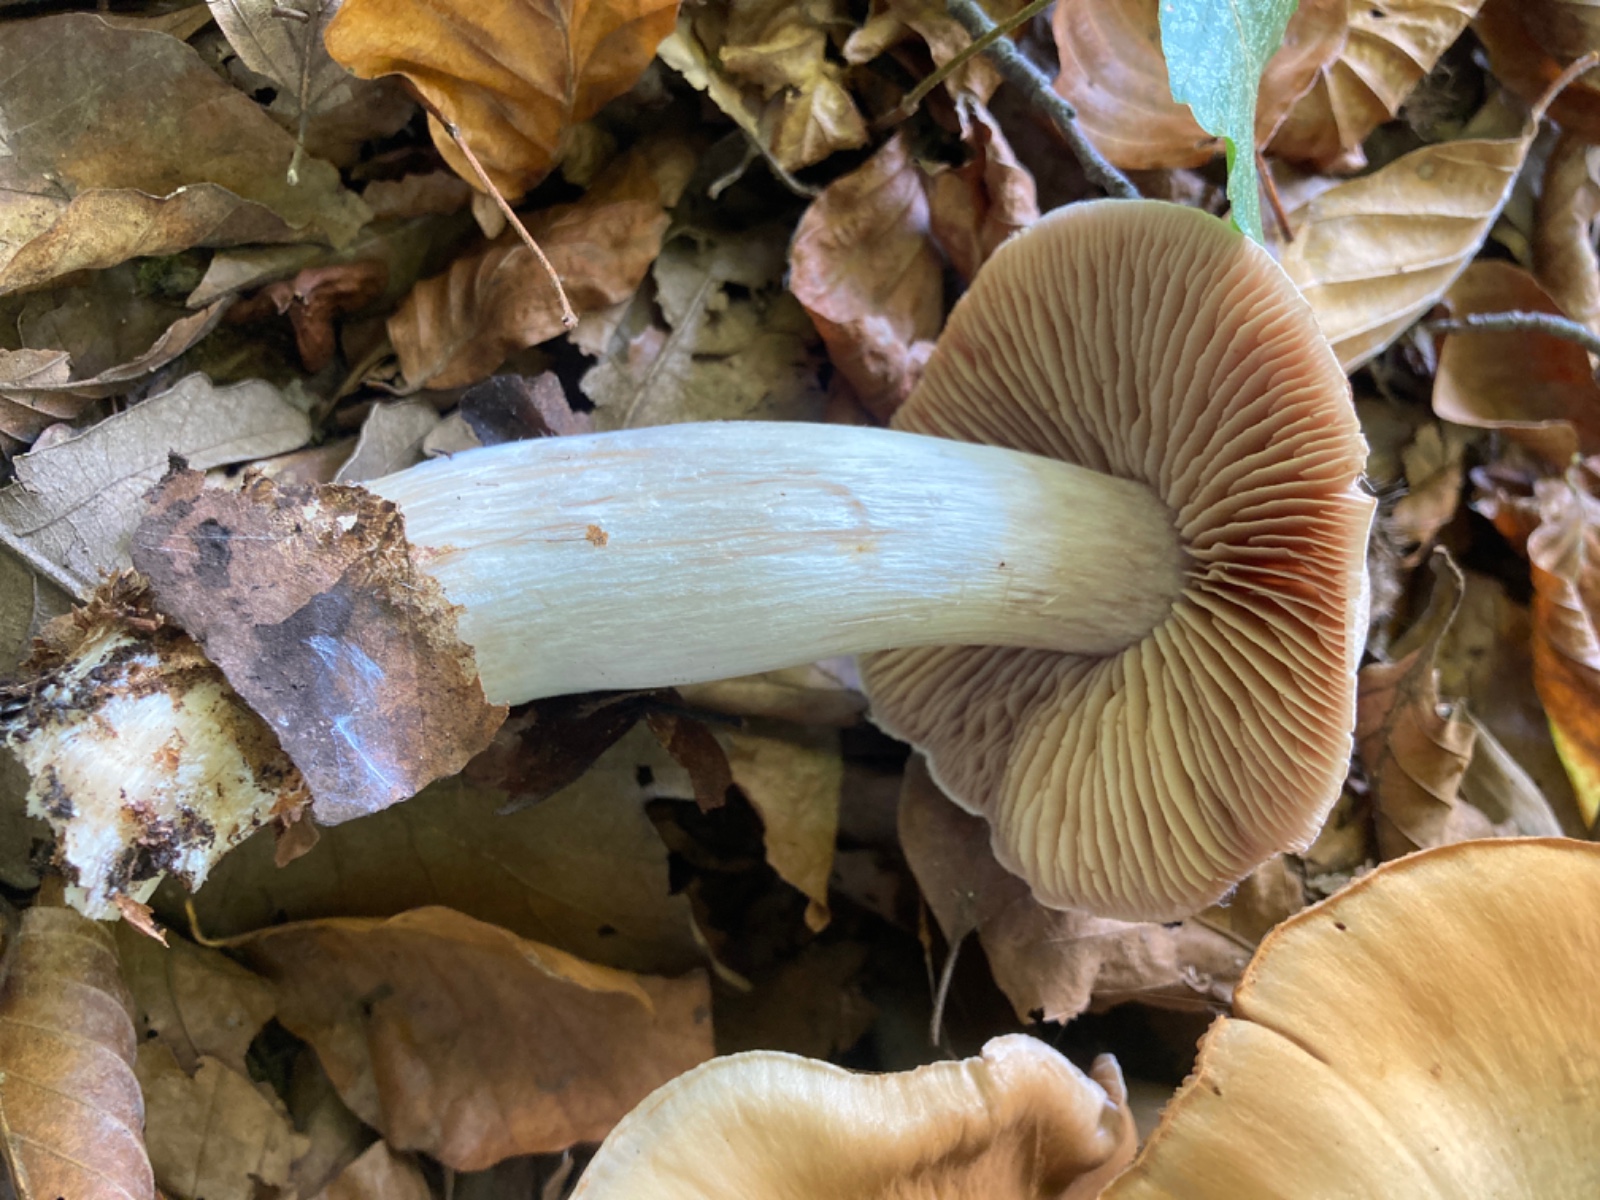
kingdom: Fungi
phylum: Basidiomycota
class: Agaricomycetes
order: Agaricales
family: Cortinariaceae
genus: Cortinarius
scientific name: Cortinarius turgidus
